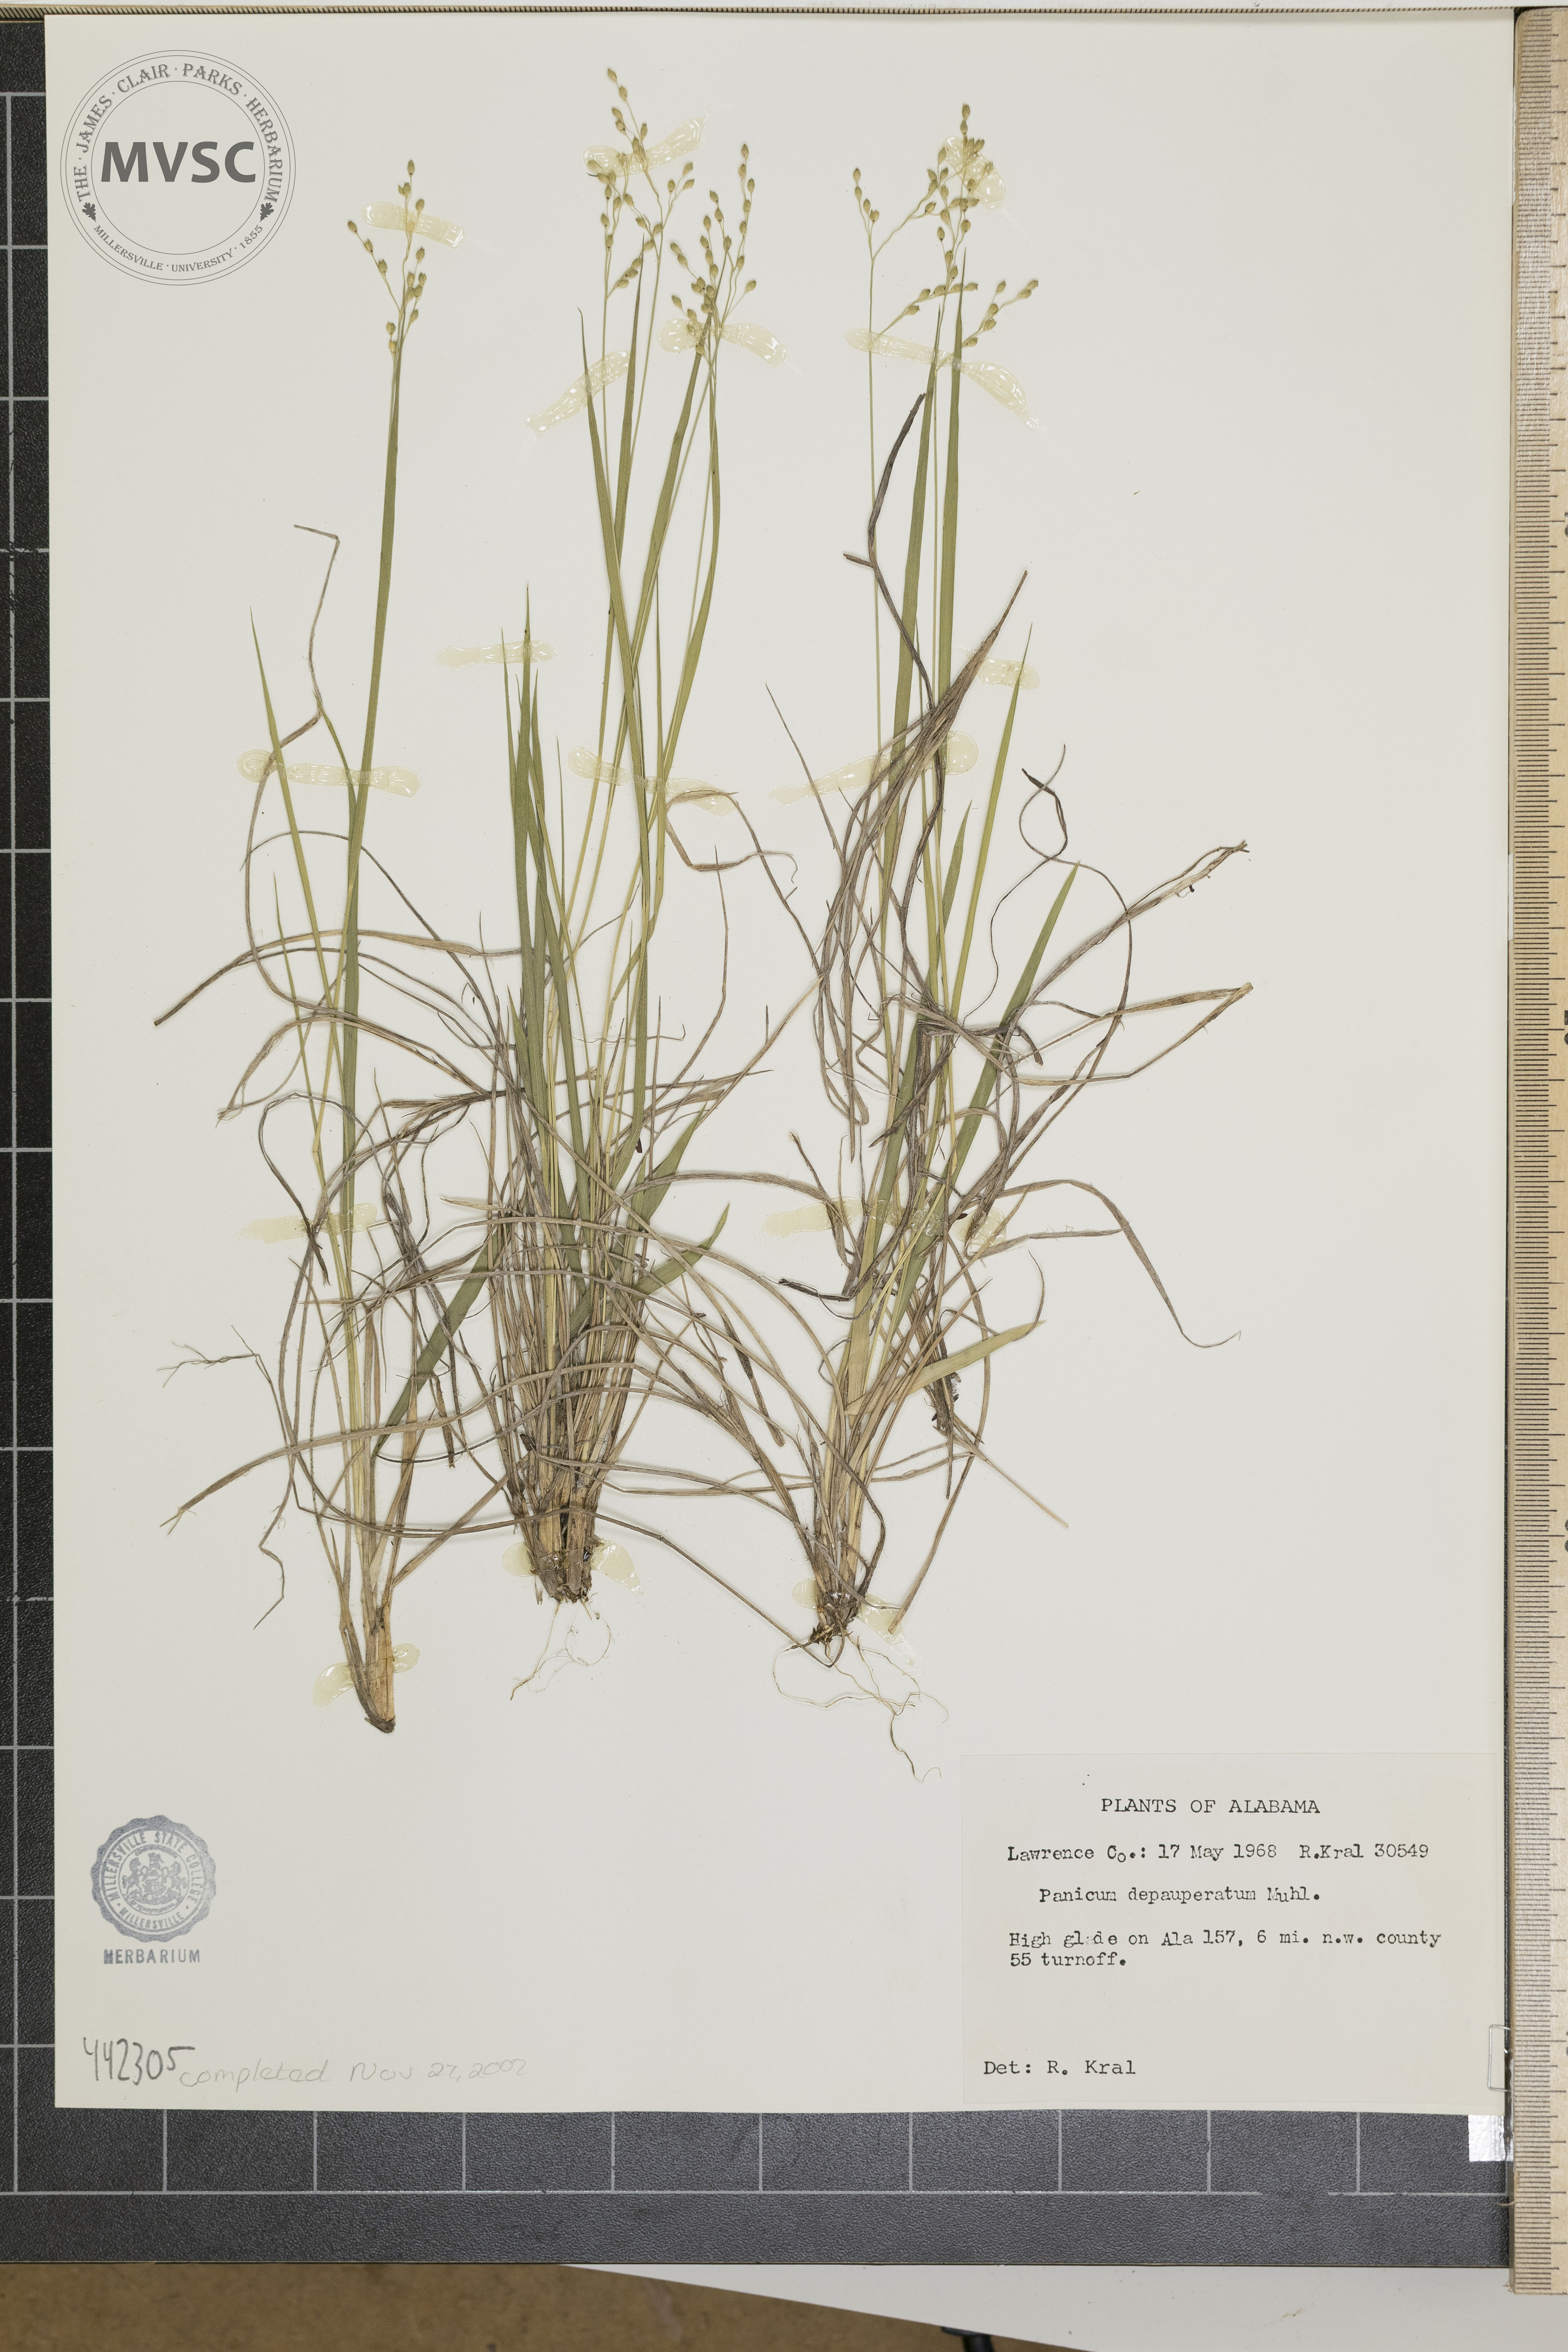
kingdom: Plantae
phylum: Tracheophyta
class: Liliopsida
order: Poales
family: Poaceae
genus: Dichanthelium
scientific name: Dichanthelium depauperatum
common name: Depauperate panicgrass
